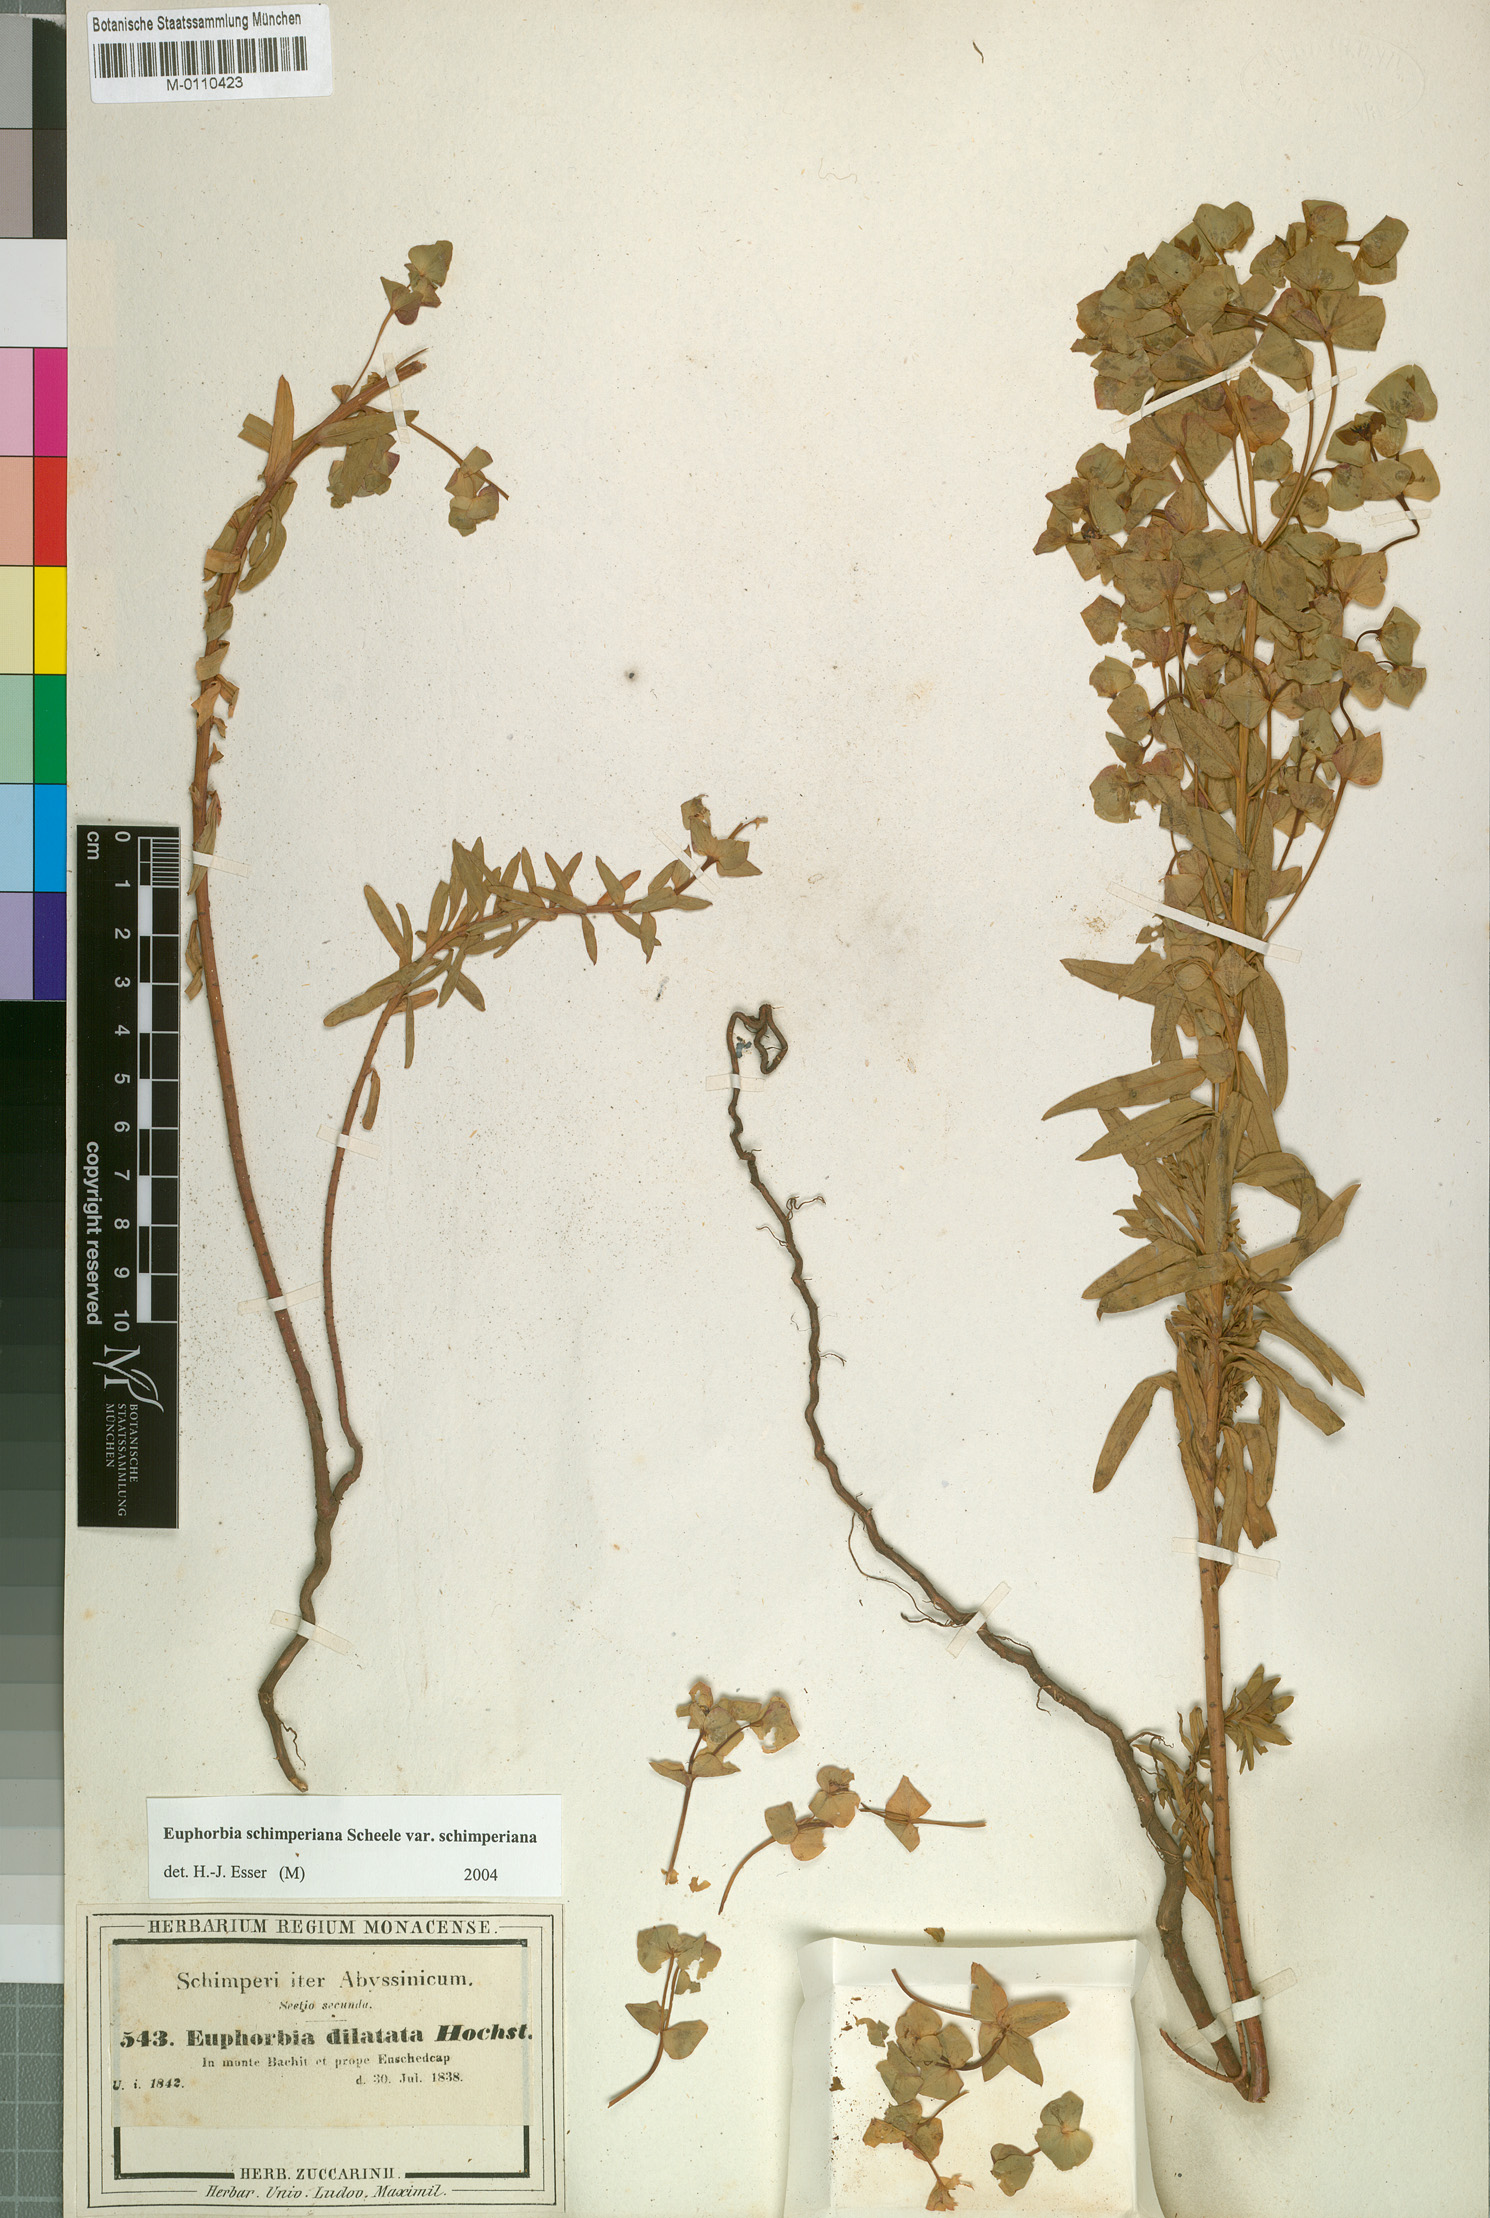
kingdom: Plantae
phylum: Tracheophyta
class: Magnoliopsida
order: Malpighiales
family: Euphorbiaceae
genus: Euphorbia
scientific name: Euphorbia schimperiana
